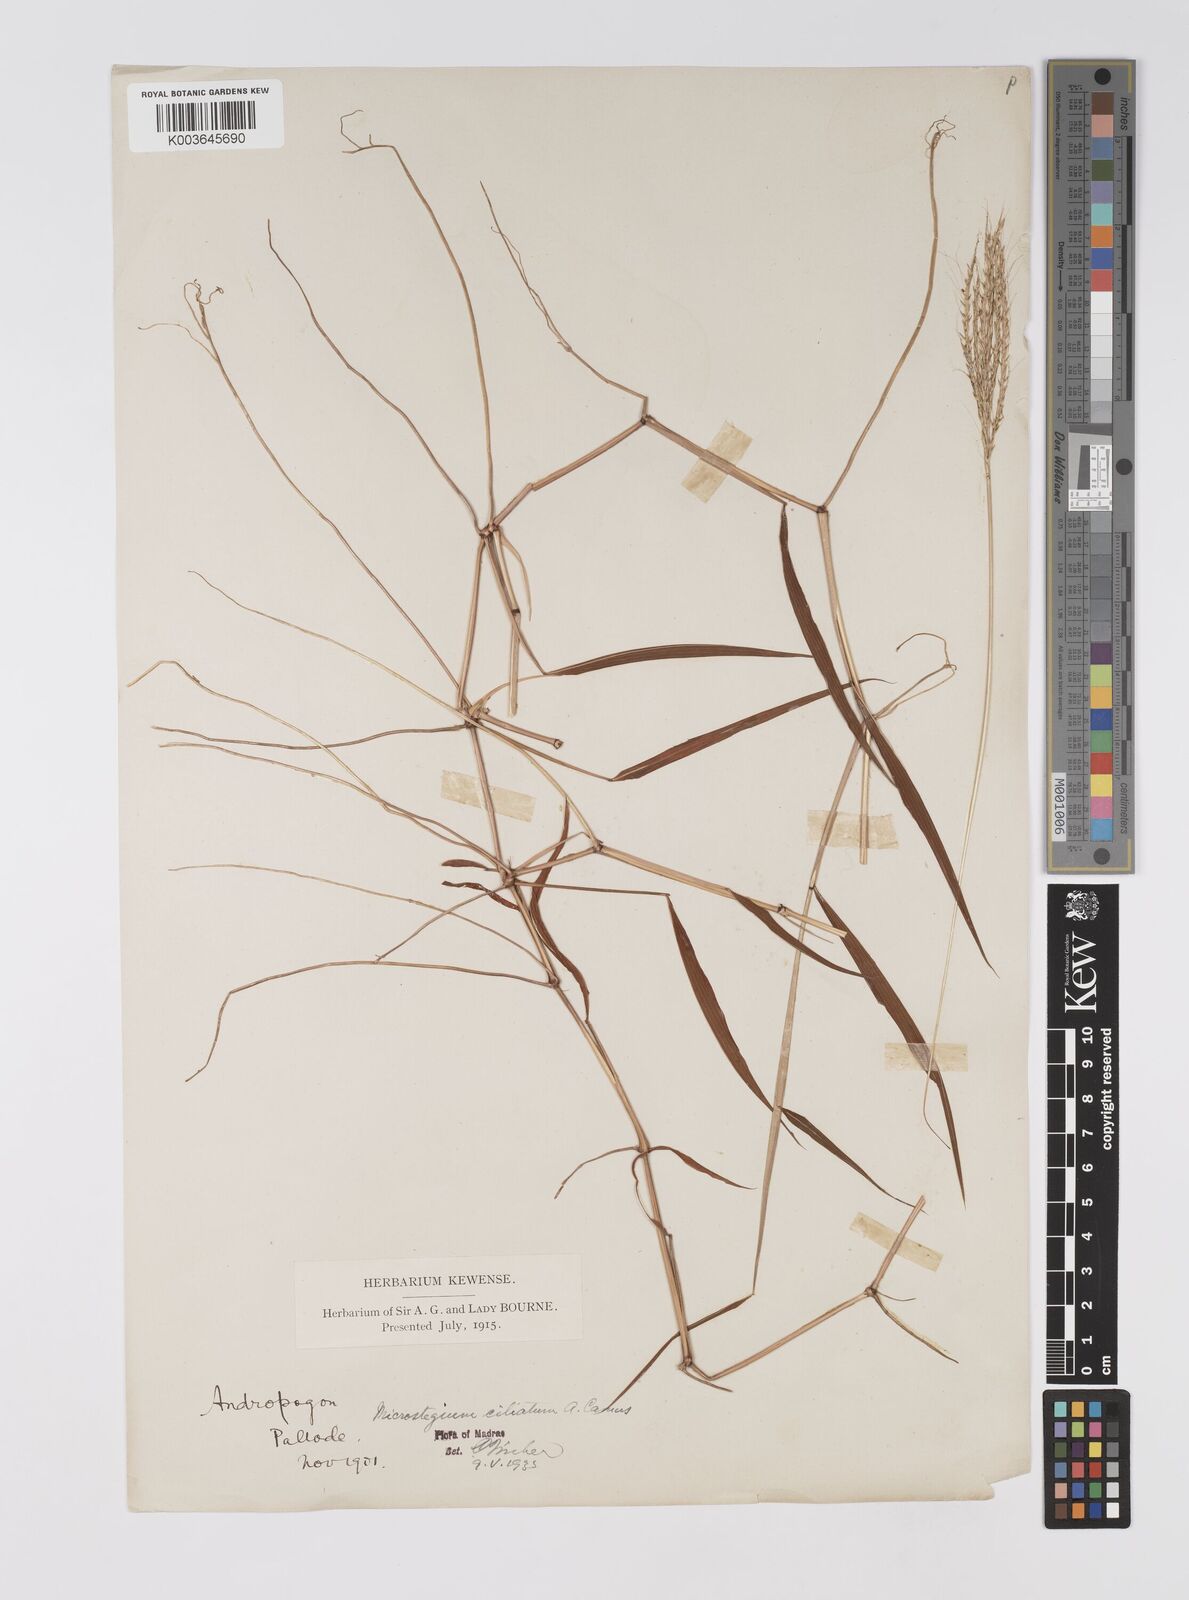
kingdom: Plantae
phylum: Tracheophyta
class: Liliopsida
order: Poales
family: Poaceae
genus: Microstegium
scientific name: Microstegium fasciculatum
